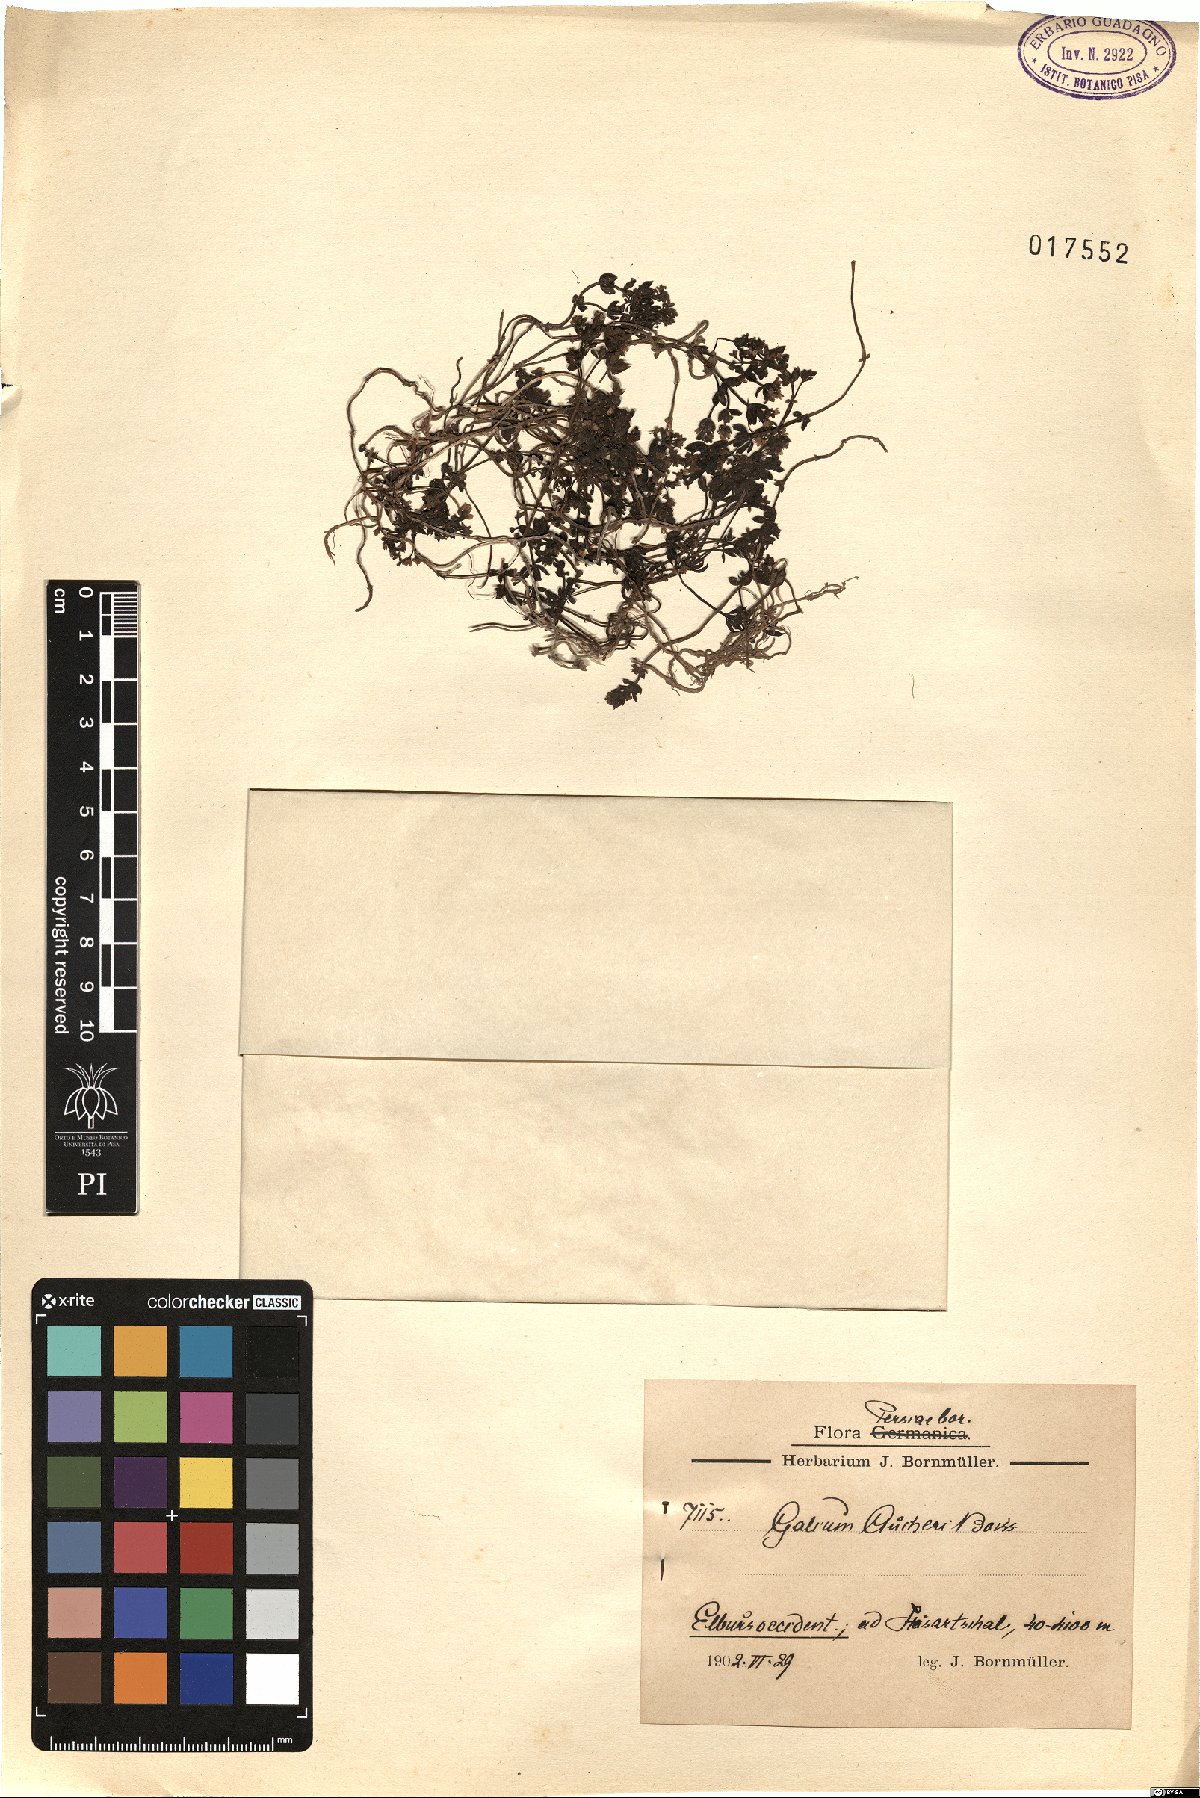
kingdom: Plantae
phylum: Tracheophyta
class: Magnoliopsida
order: Gentianales
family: Rubiaceae
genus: Galium
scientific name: Galium aucheri
